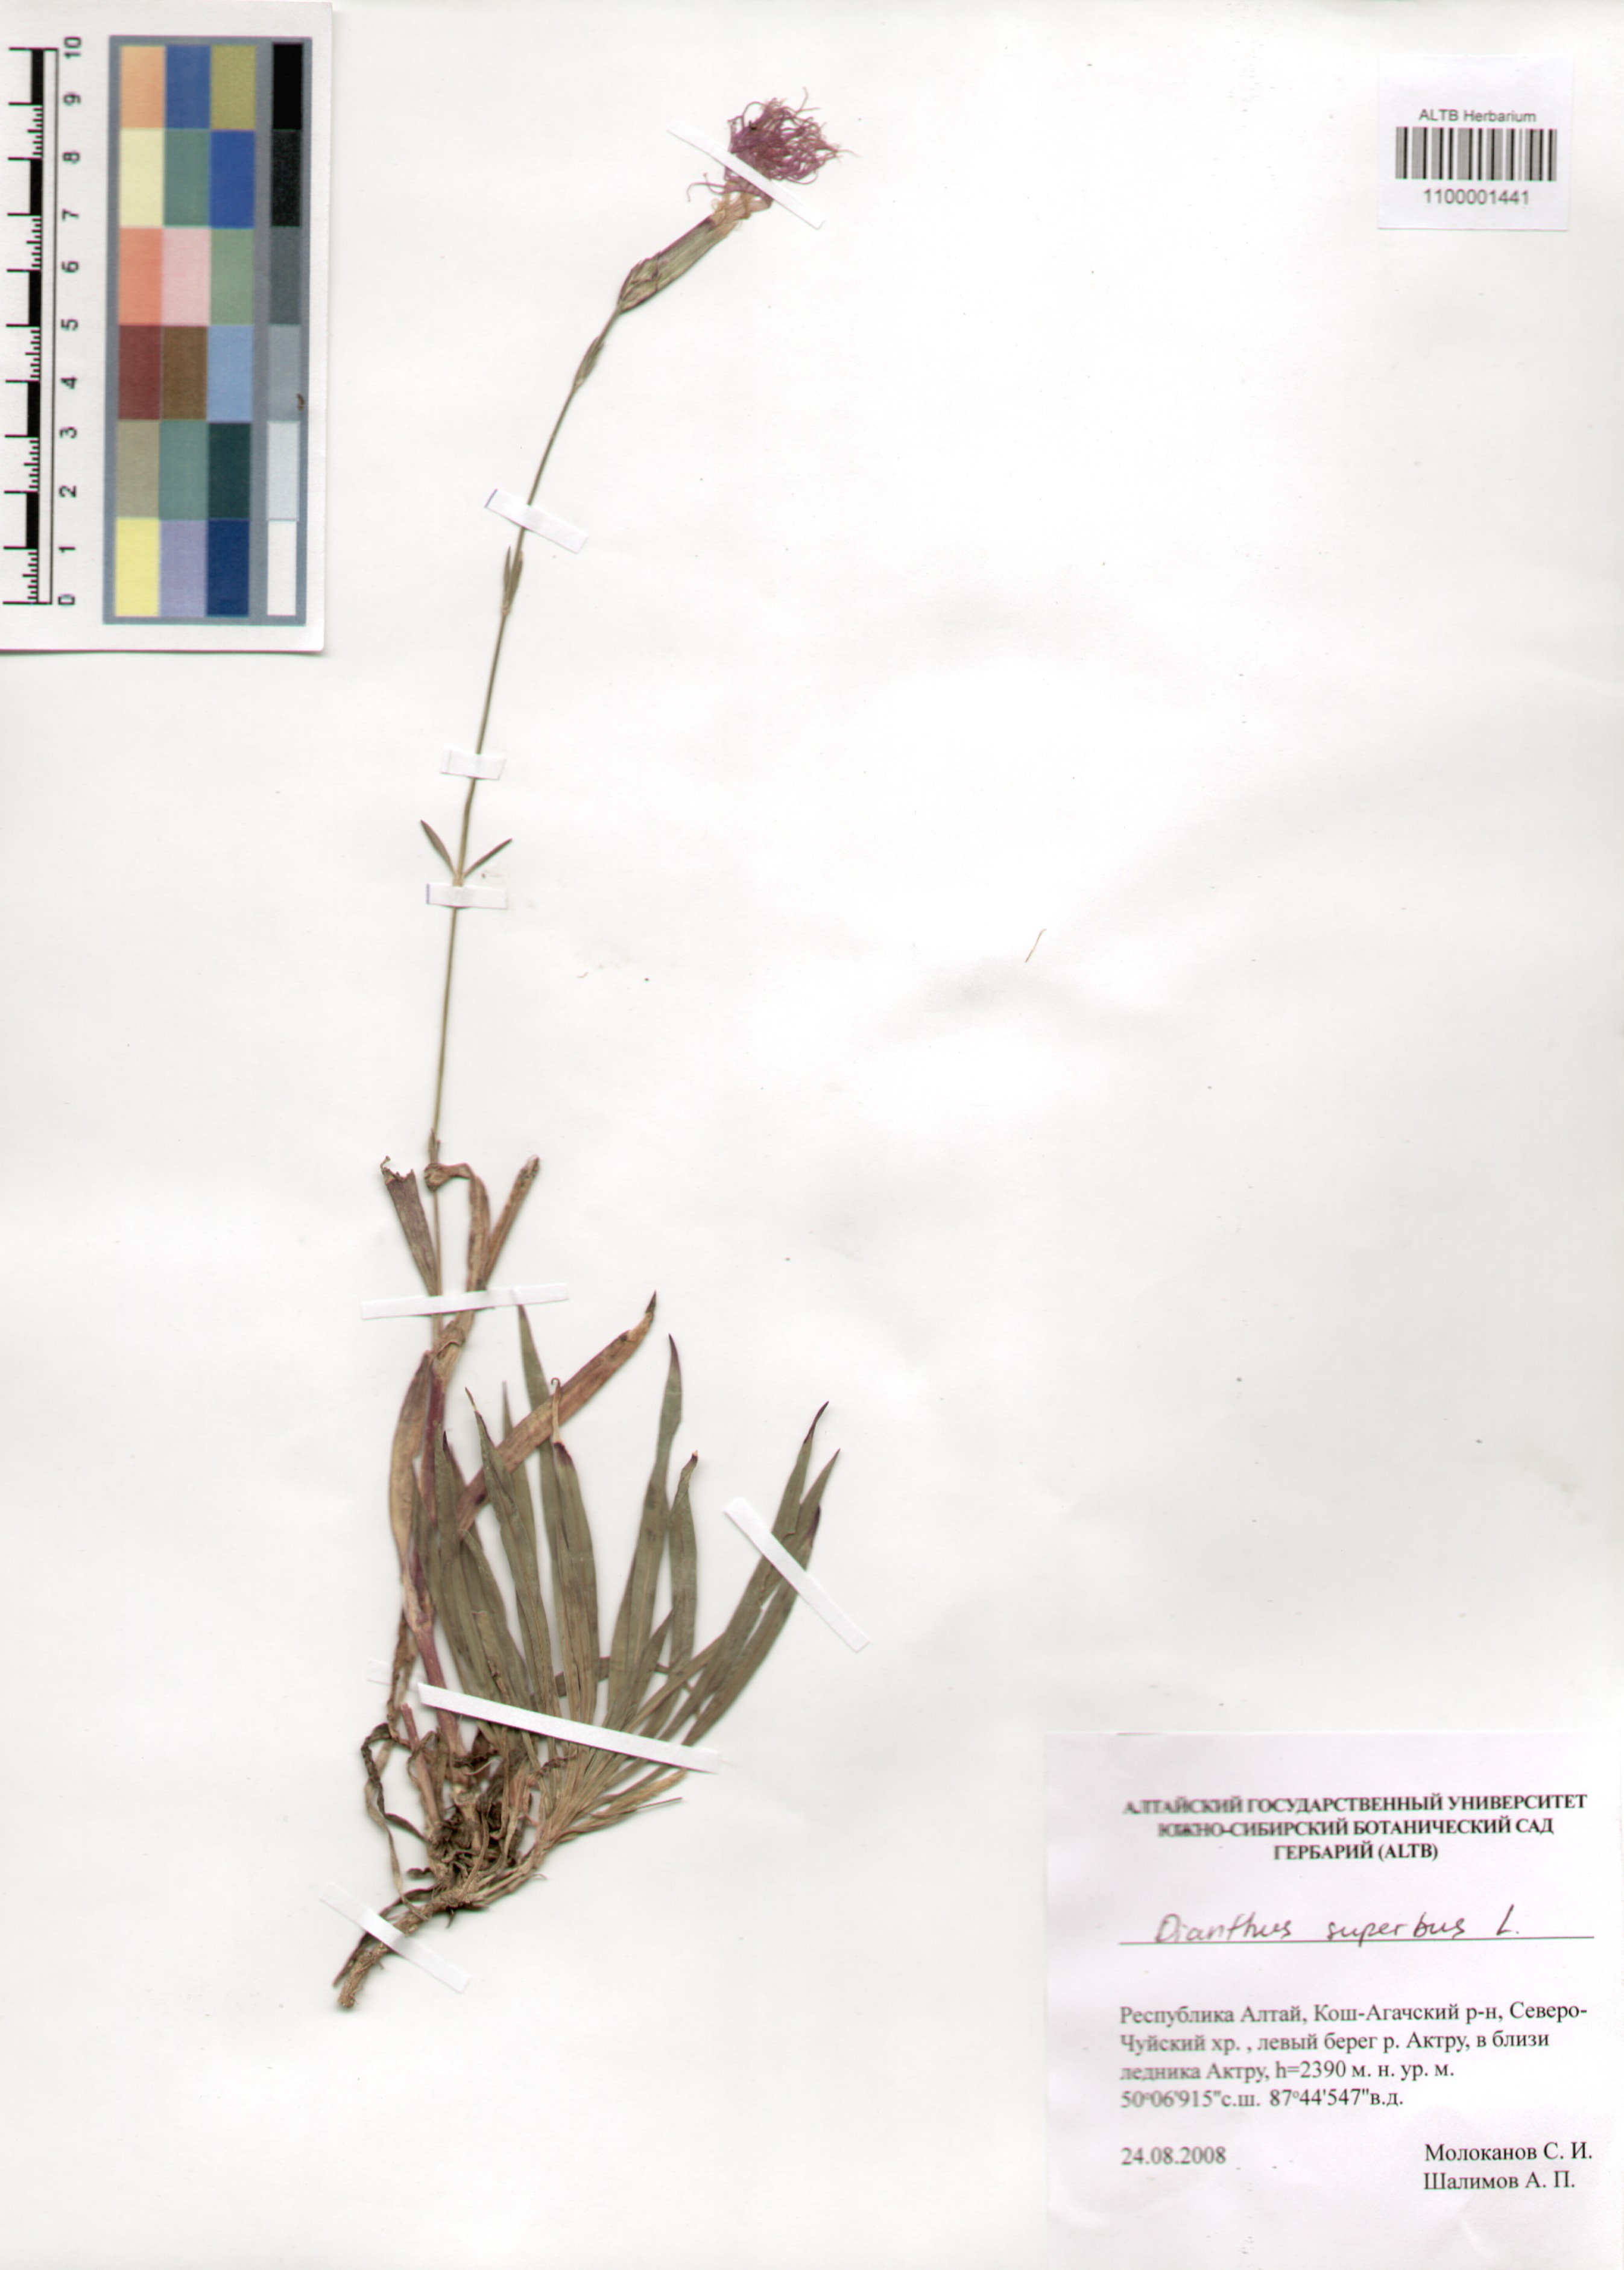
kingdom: Plantae
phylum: Tracheophyta
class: Magnoliopsida
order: Caryophyllales
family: Caryophyllaceae
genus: Dianthus
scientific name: Dianthus superbus
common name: Fringed pink
